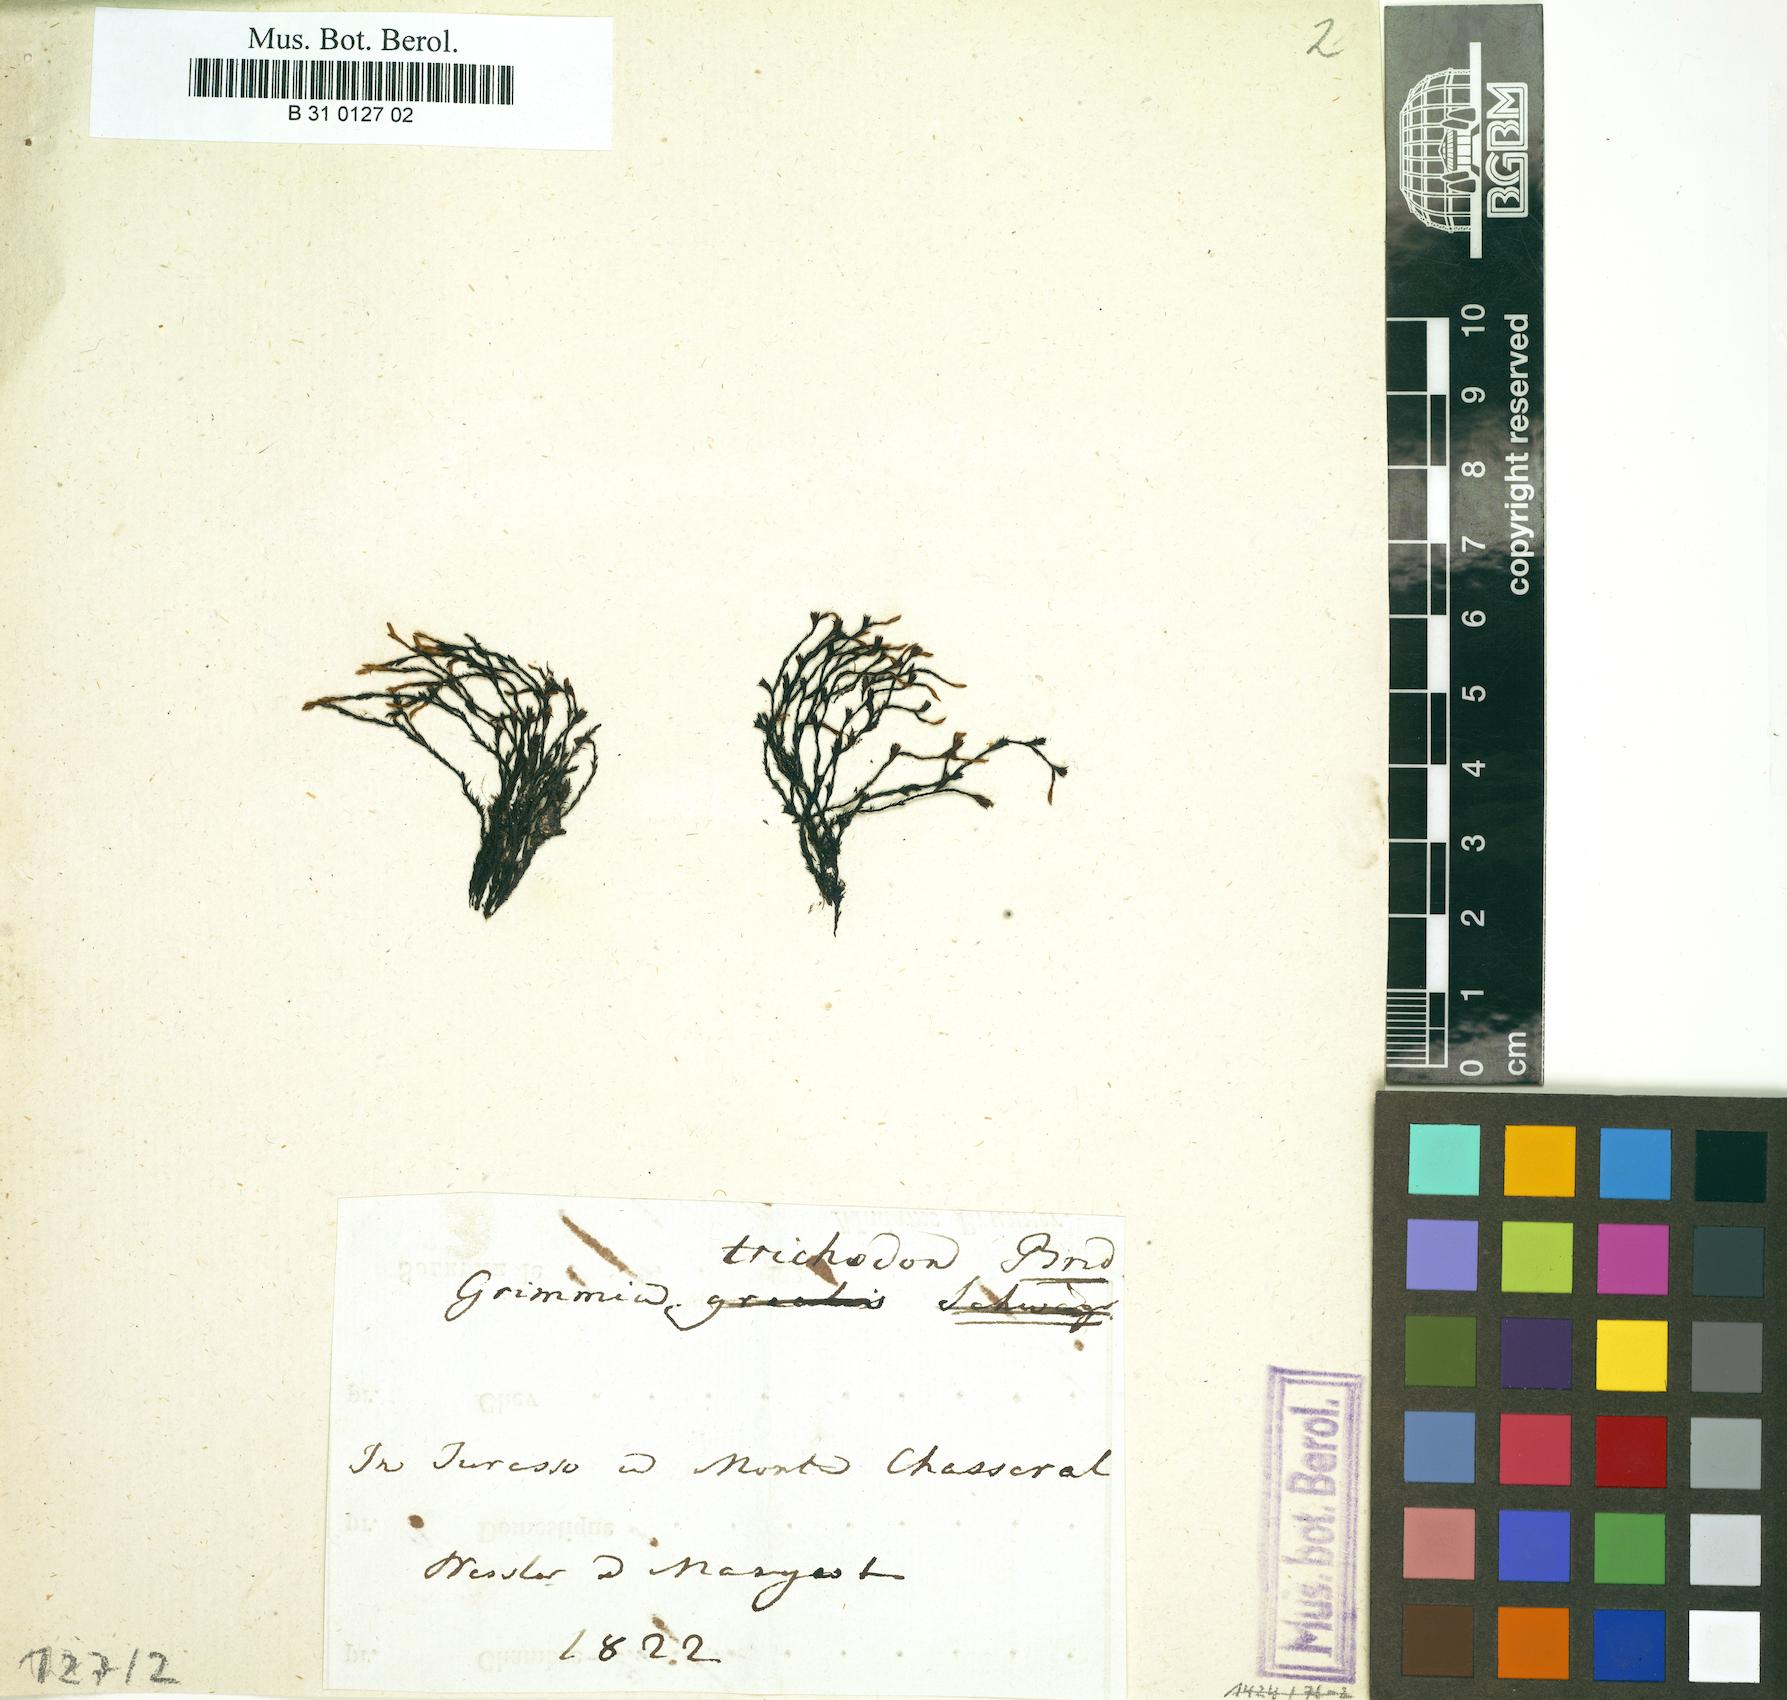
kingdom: Plantae
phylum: Bryophyta
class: Bryopsida
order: Grimmiales
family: Grimmiaceae
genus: Schistidium
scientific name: Schistidium trichodon
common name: Black bloom moss
